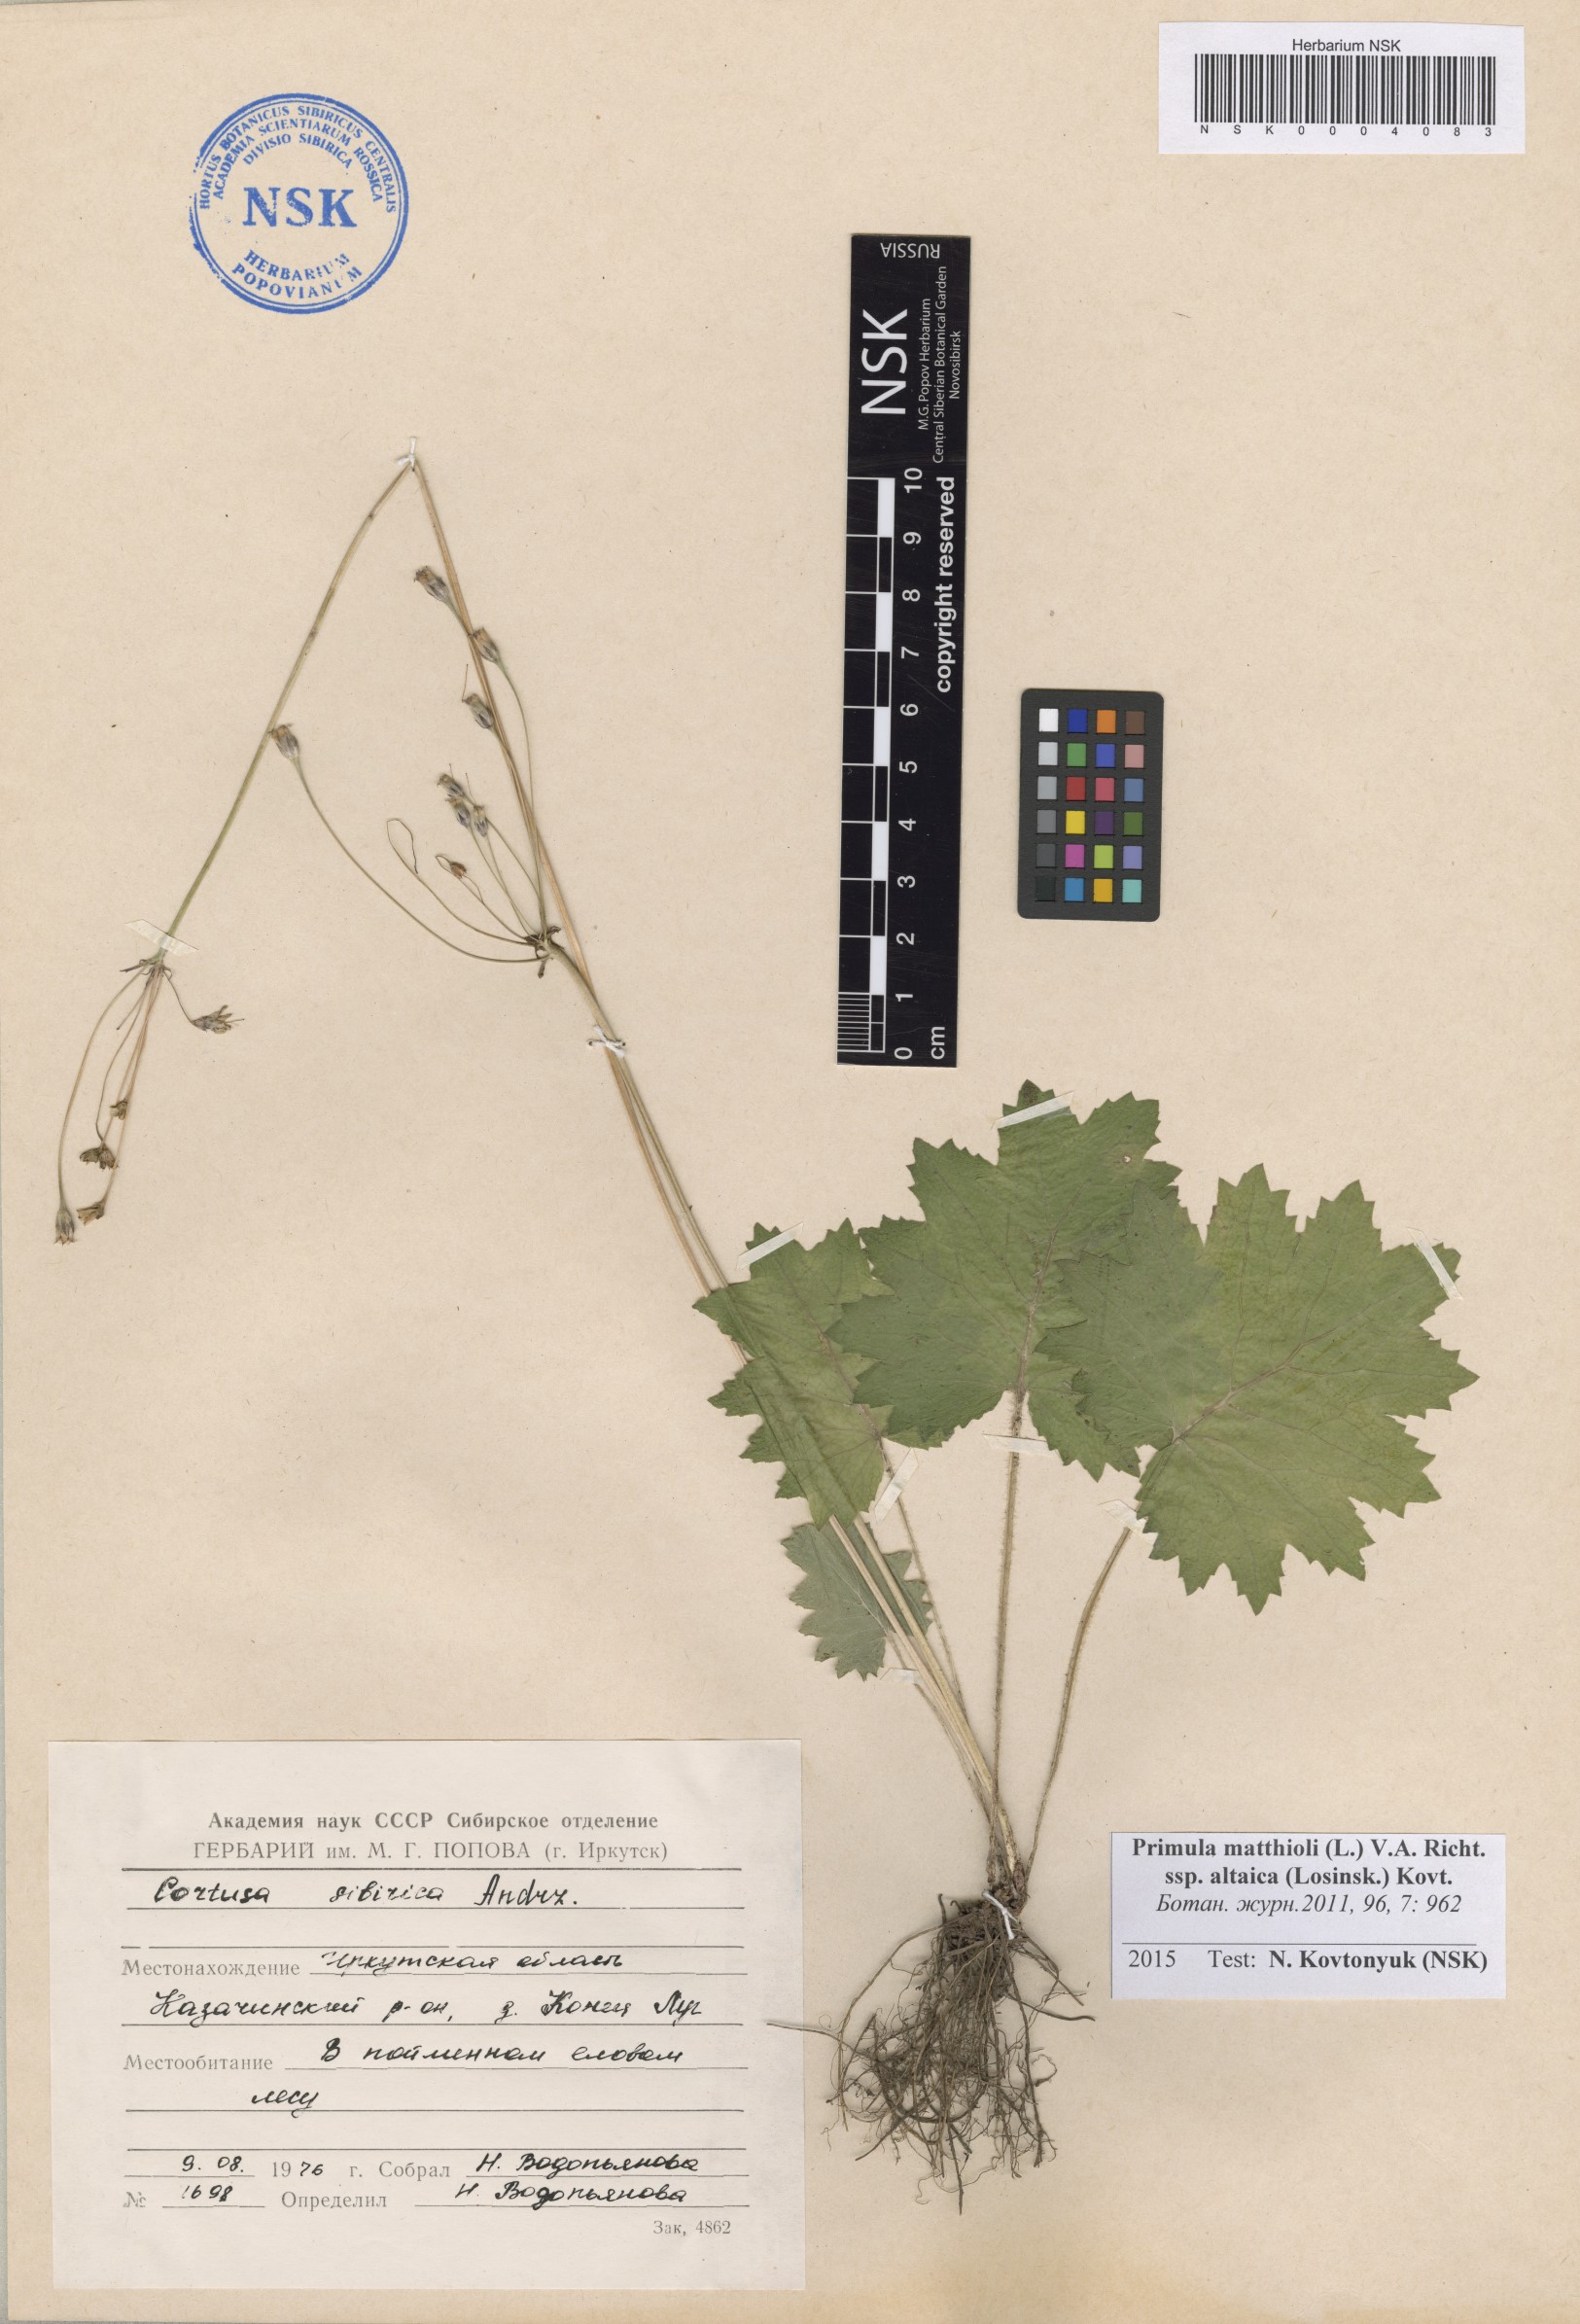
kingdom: Plantae
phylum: Tracheophyta
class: Magnoliopsida
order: Ericales
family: Primulaceae
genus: Primula
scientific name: Primula matthioli
